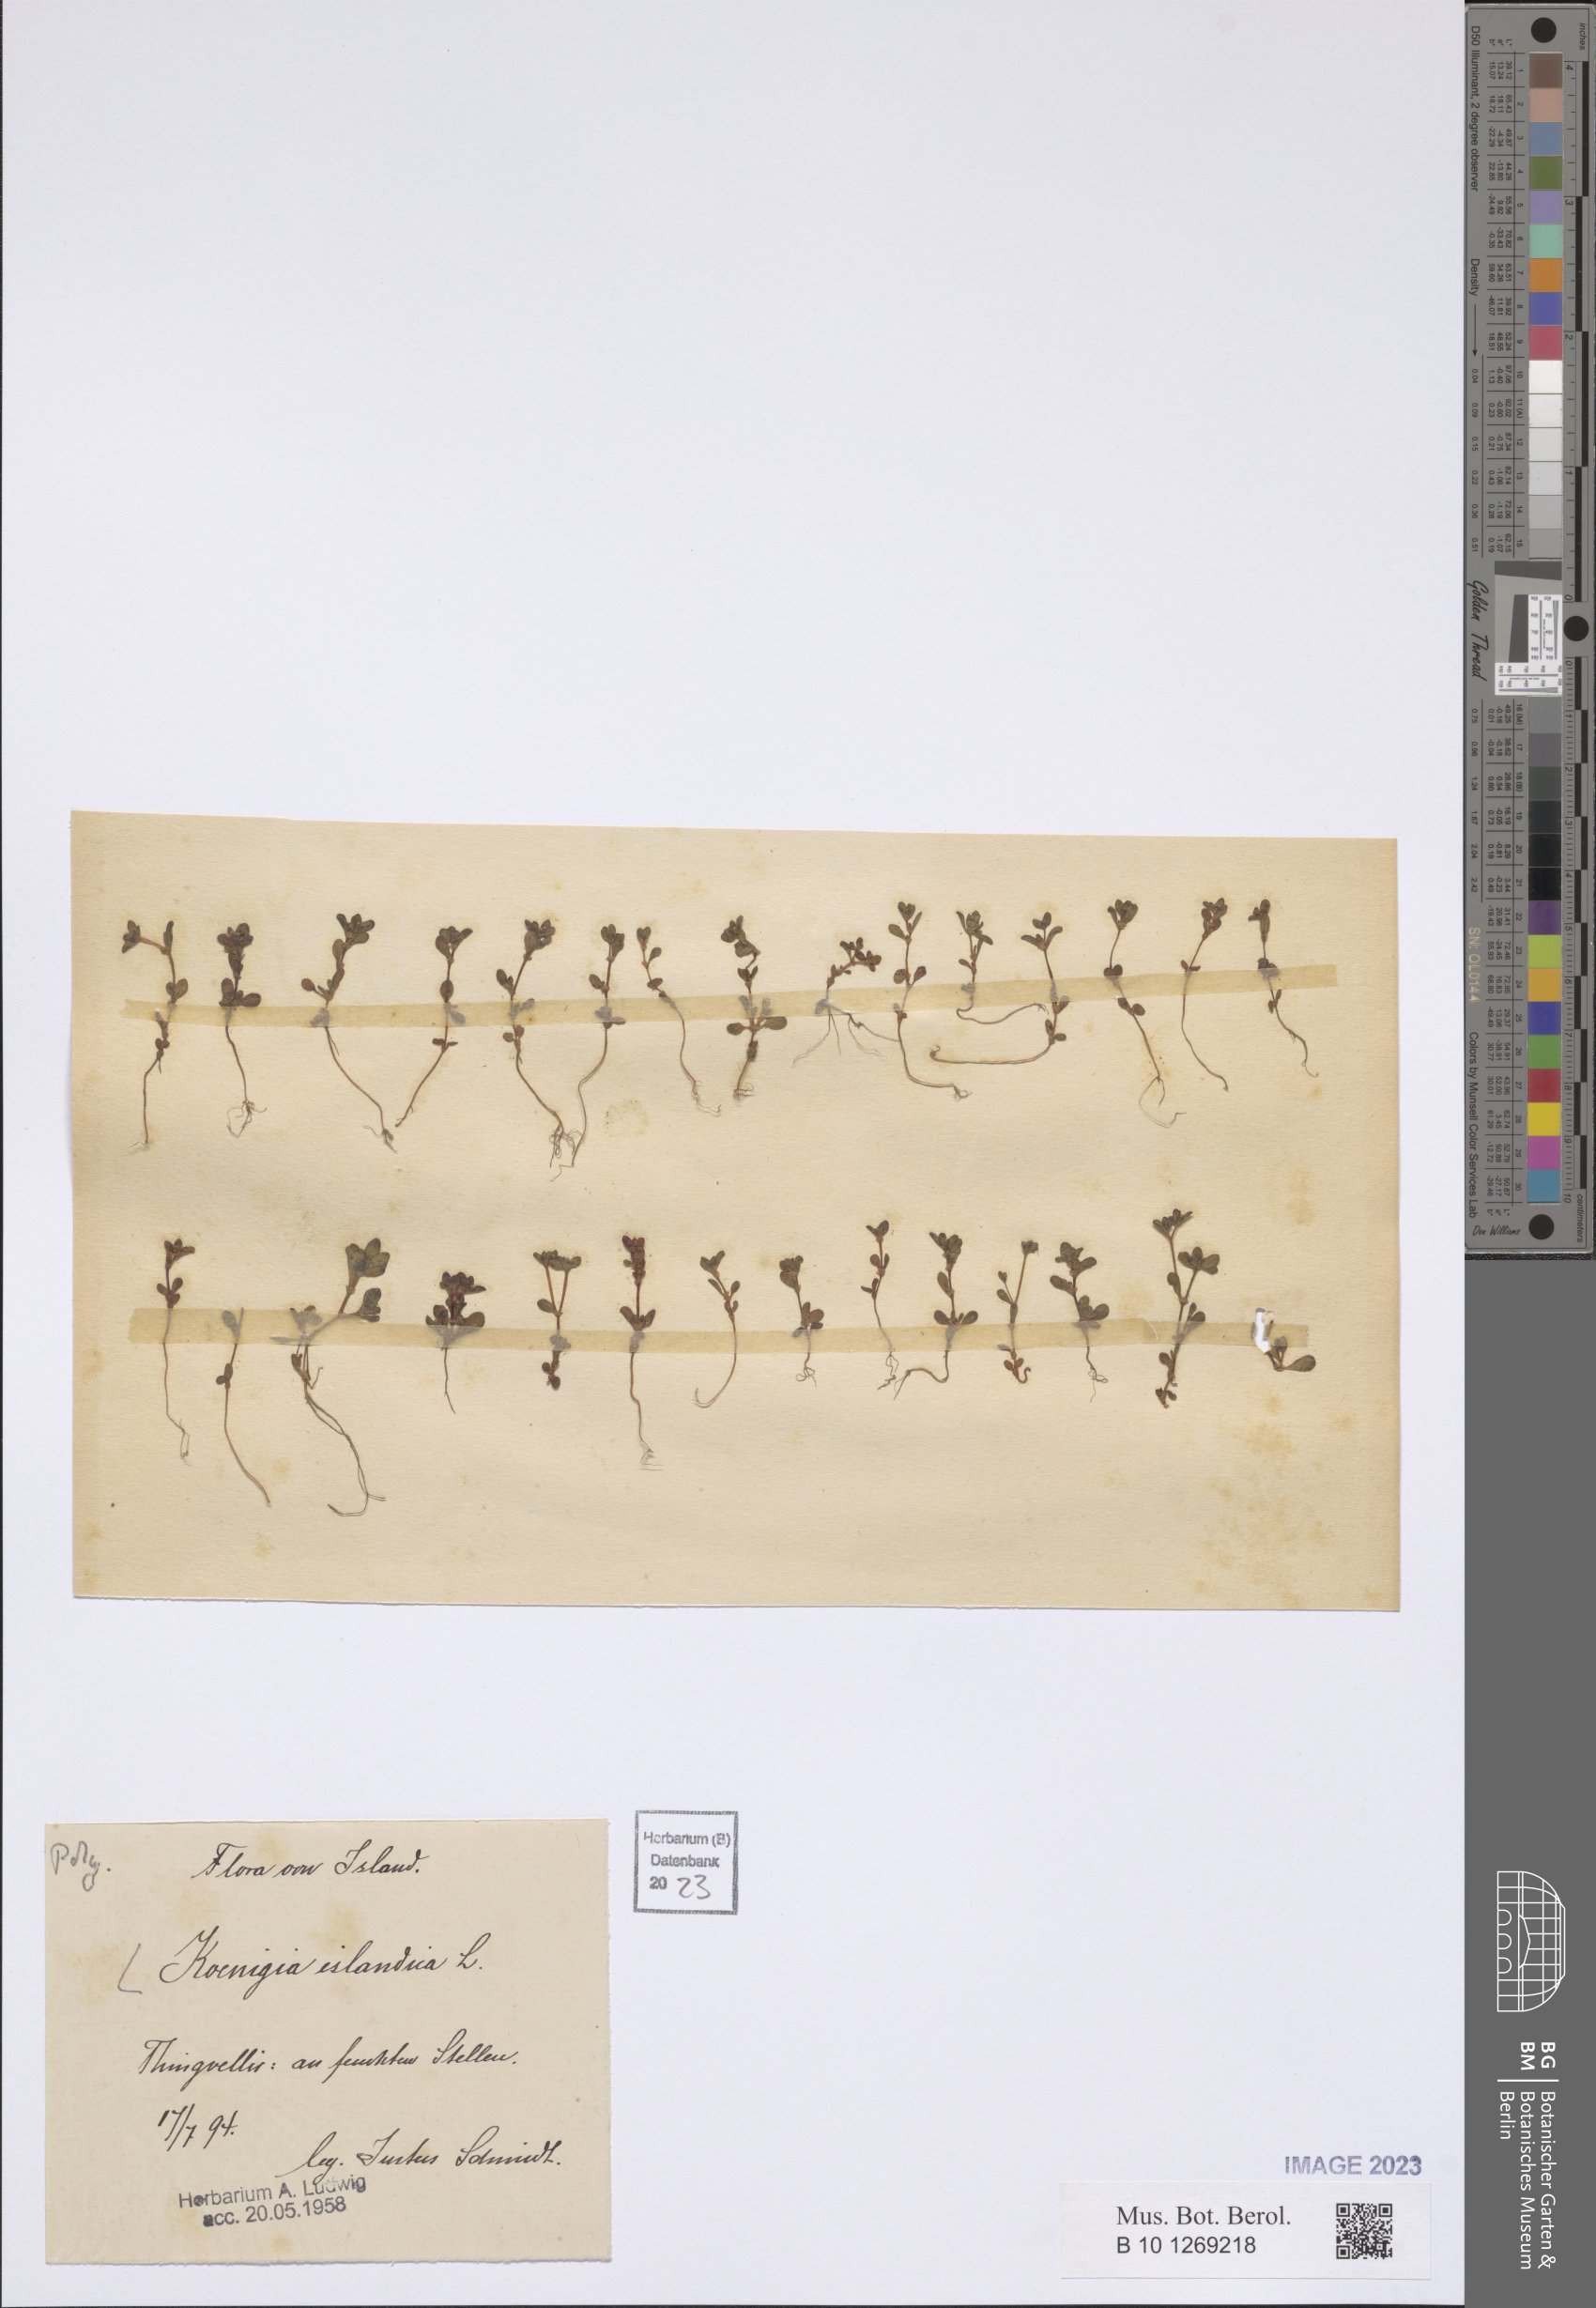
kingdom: Plantae
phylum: Tracheophyta
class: Magnoliopsida
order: Caryophyllales
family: Polygonaceae
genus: Koenigia
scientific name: Koenigia islandica
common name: Iceland-purslane
